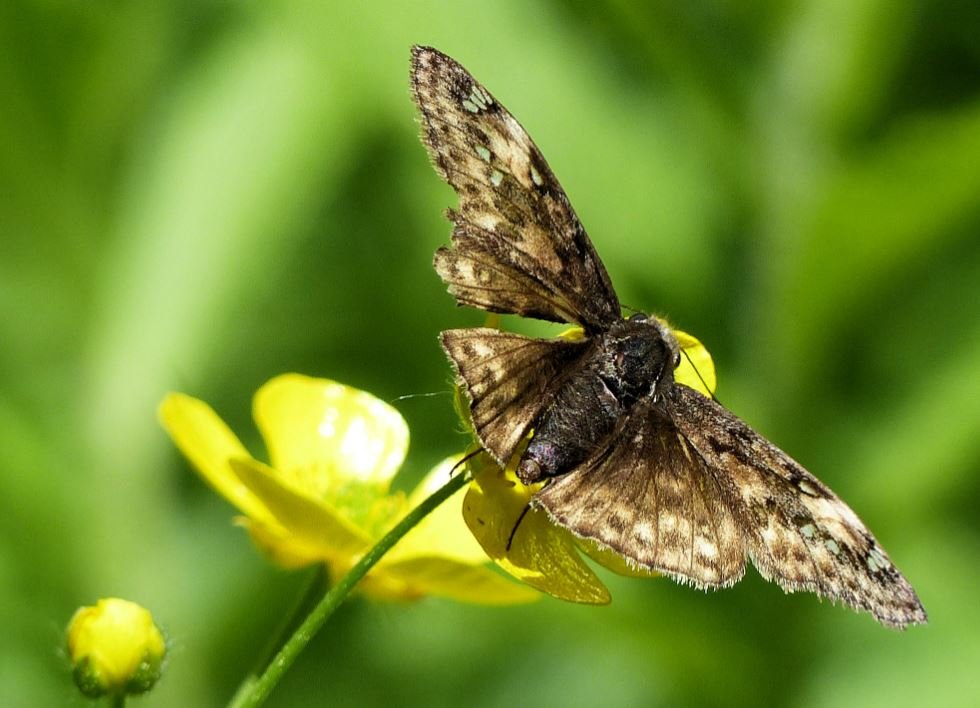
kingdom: Animalia
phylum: Arthropoda
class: Insecta
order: Lepidoptera
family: Hesperiidae
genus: Gesta
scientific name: Gesta
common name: Juvenal's Duskywing
